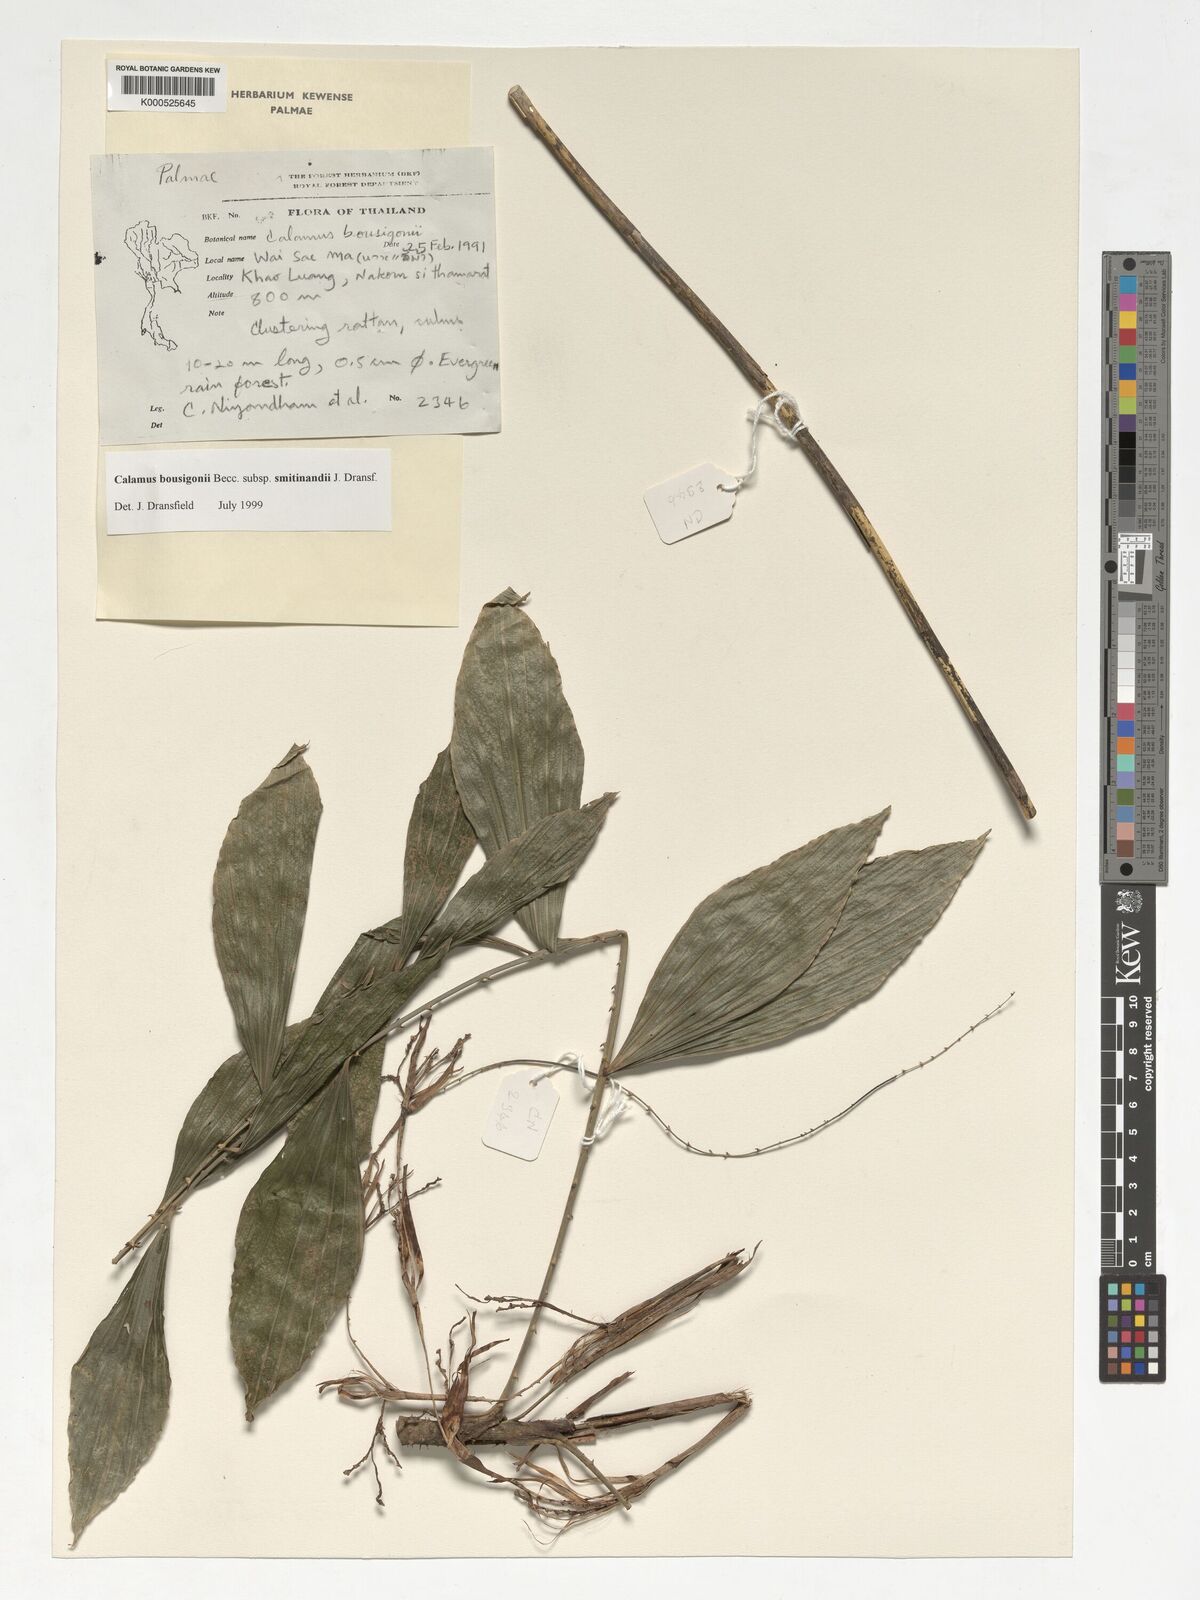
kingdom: Plantae
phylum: Tracheophyta
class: Liliopsida
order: Arecales
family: Arecaceae
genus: Calamus
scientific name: Calamus smitinandii
